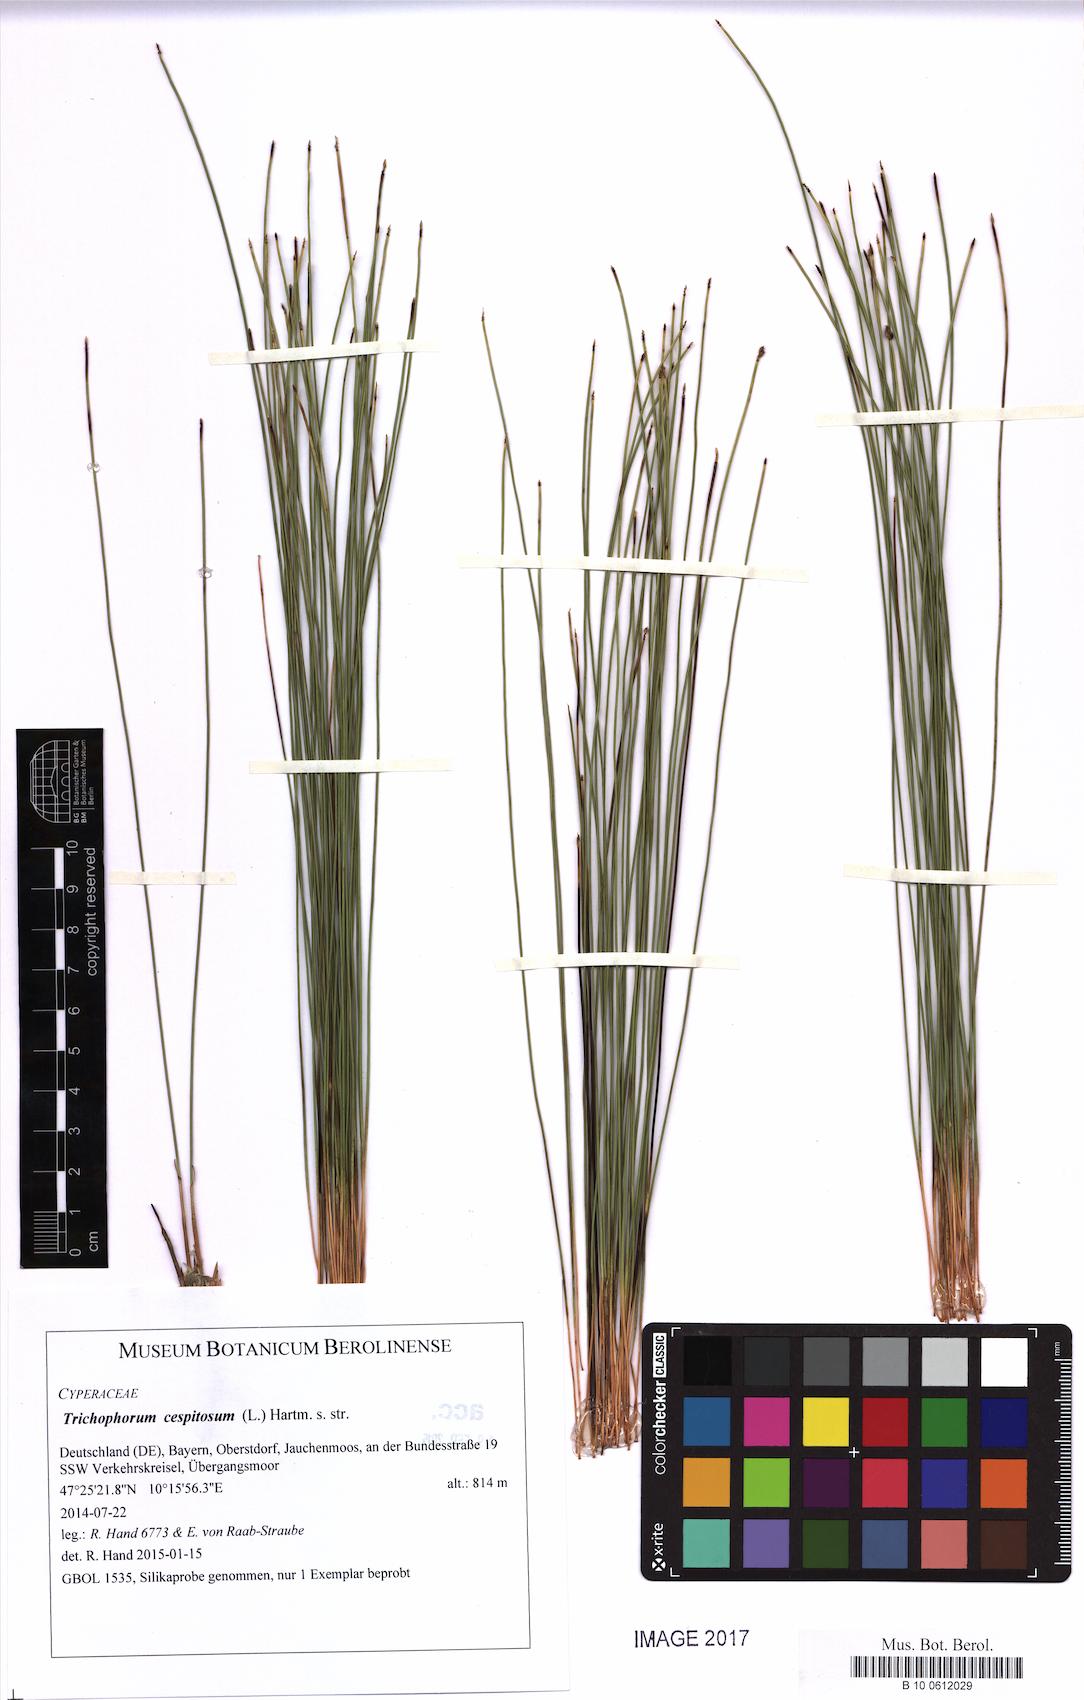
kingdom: Plantae
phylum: Tracheophyta
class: Liliopsida
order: Poales
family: Cyperaceae
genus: Trichophorum
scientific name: Trichophorum cespitosum
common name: Cespitose bulrush
